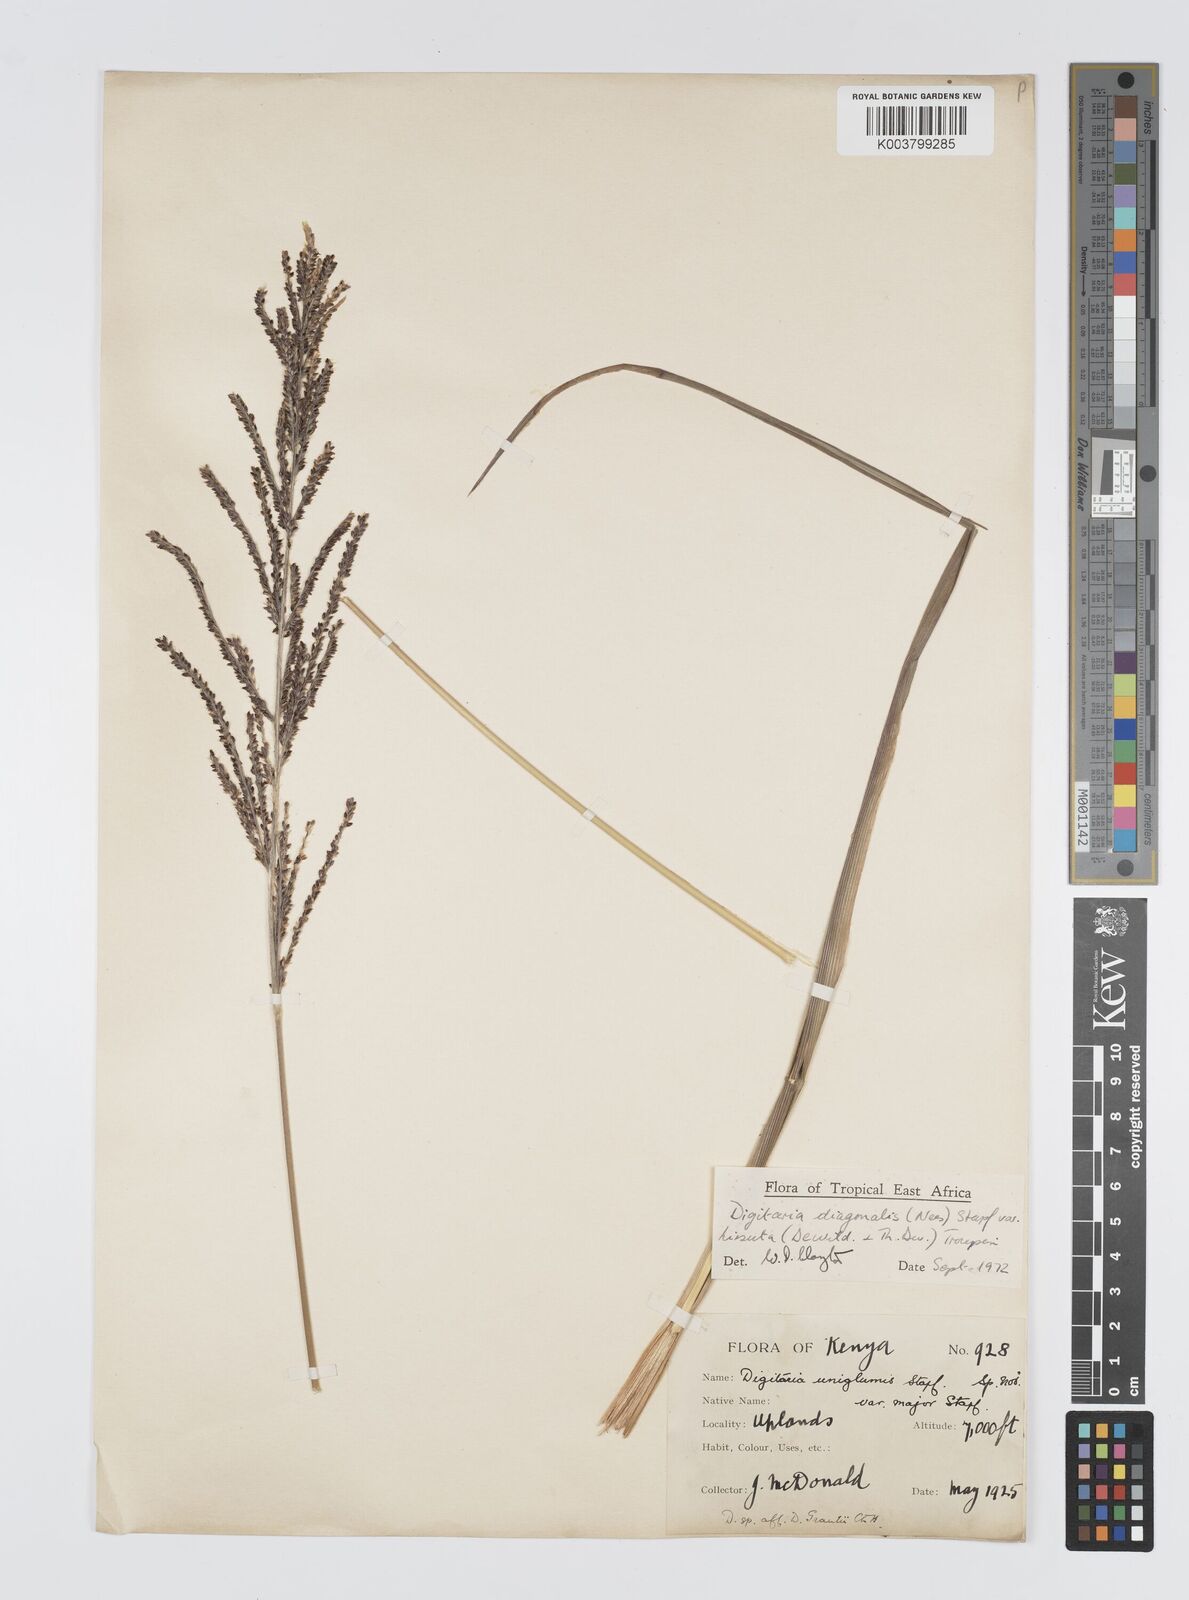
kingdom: Plantae
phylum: Tracheophyta
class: Liliopsida
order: Poales
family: Poaceae
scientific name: Poaceae
